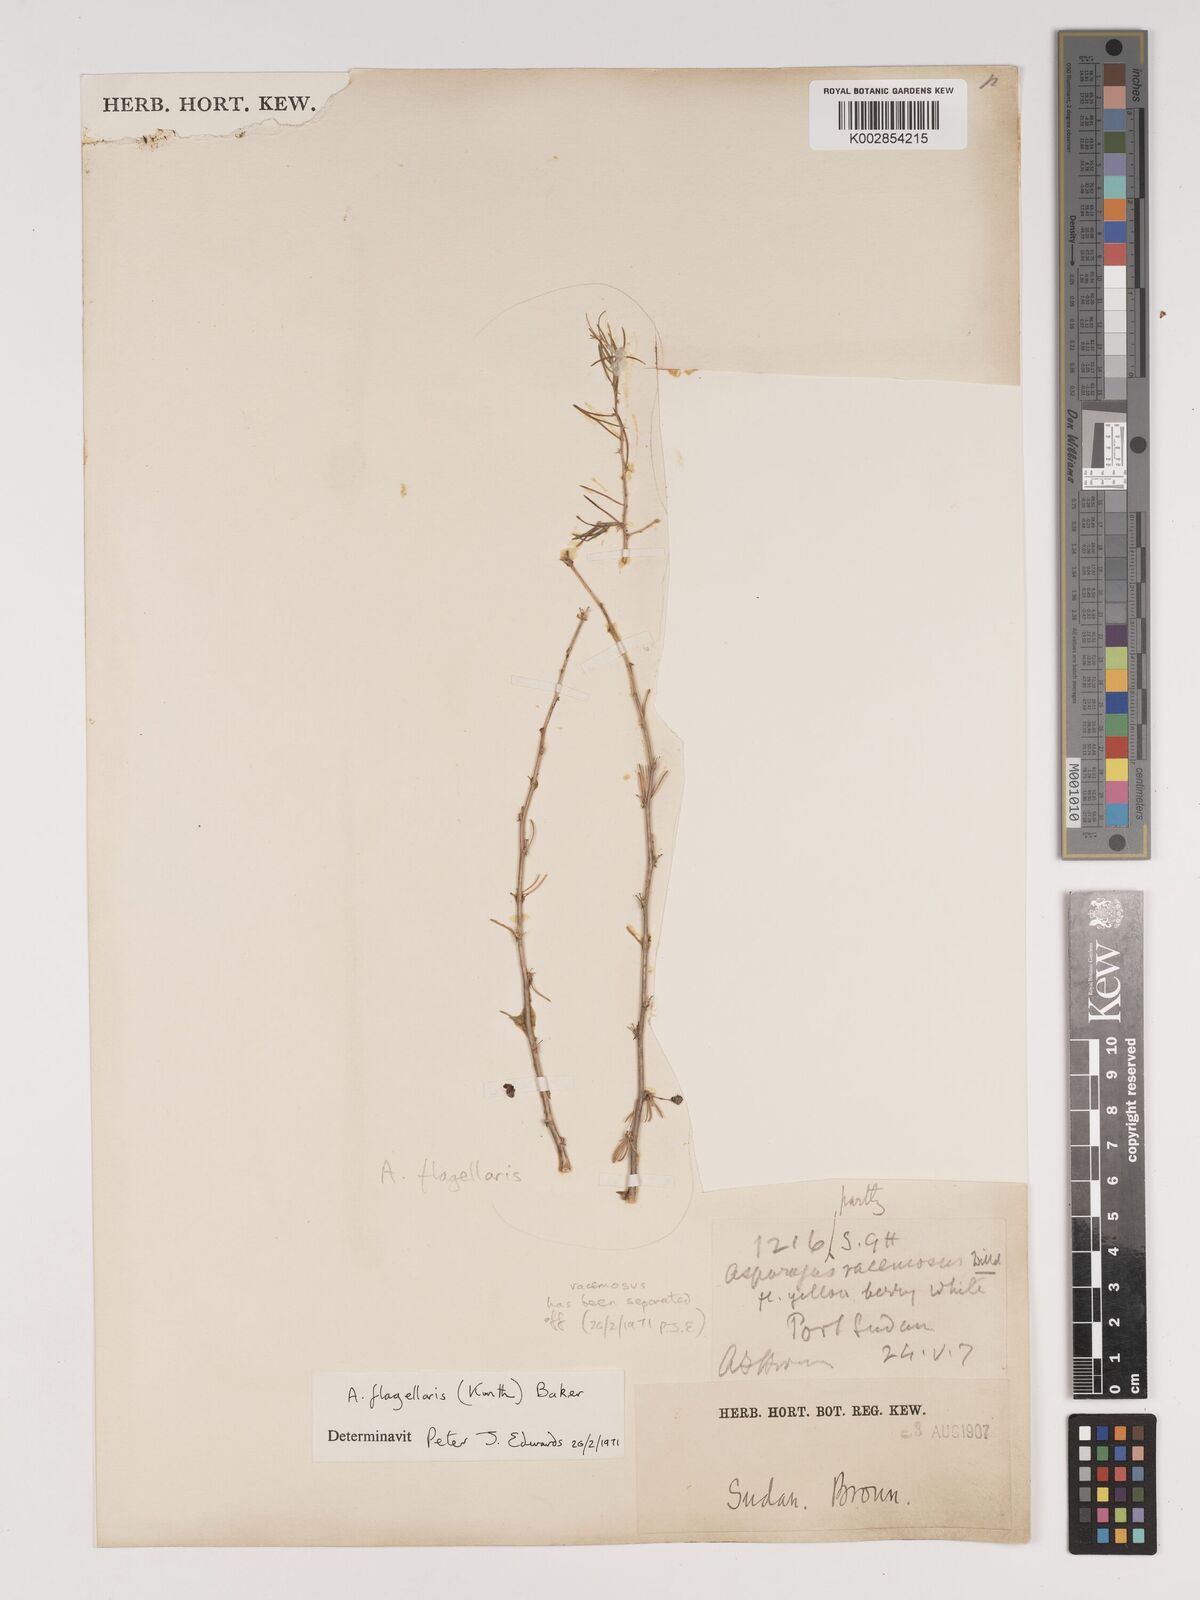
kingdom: Plantae
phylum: Tracheophyta
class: Liliopsida
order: Asparagales
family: Asparagaceae
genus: Asparagus
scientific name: Asparagus flagellaris
